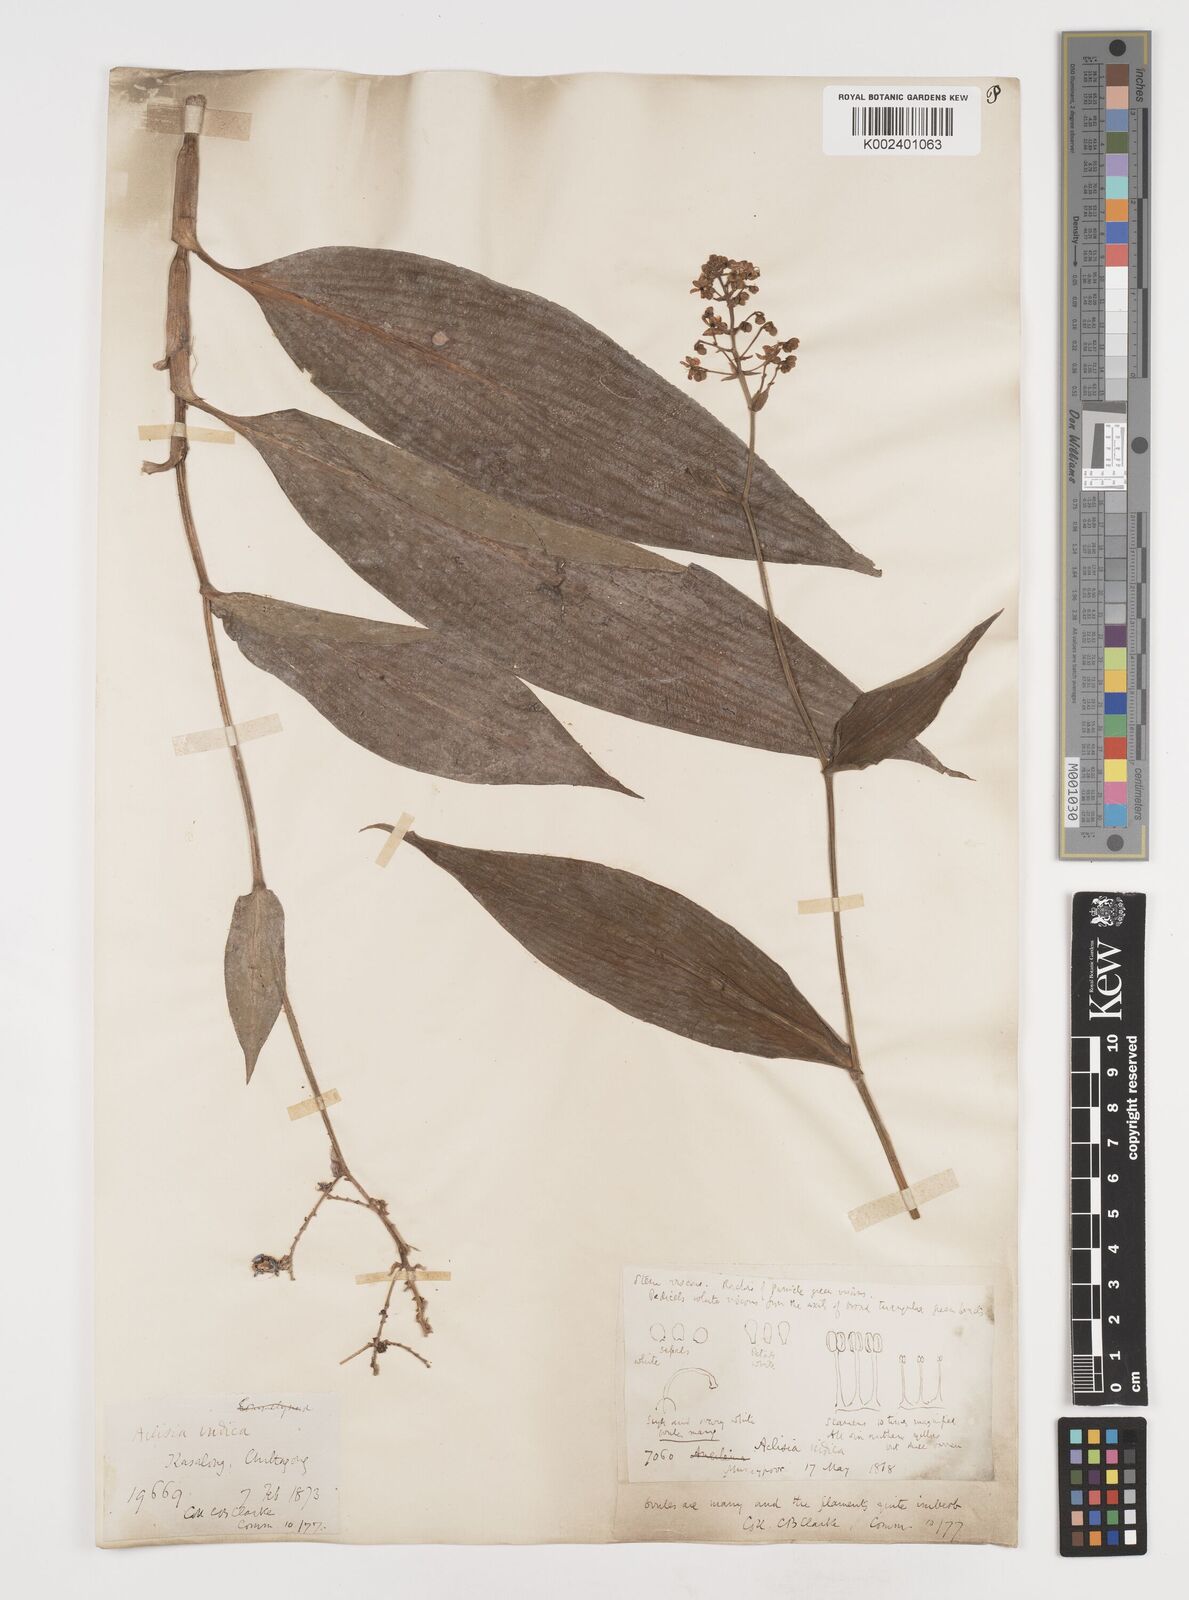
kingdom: Plantae
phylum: Tracheophyta
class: Liliopsida
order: Commelinales
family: Commelinaceae
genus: Pollia
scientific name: Pollia secundiflora
